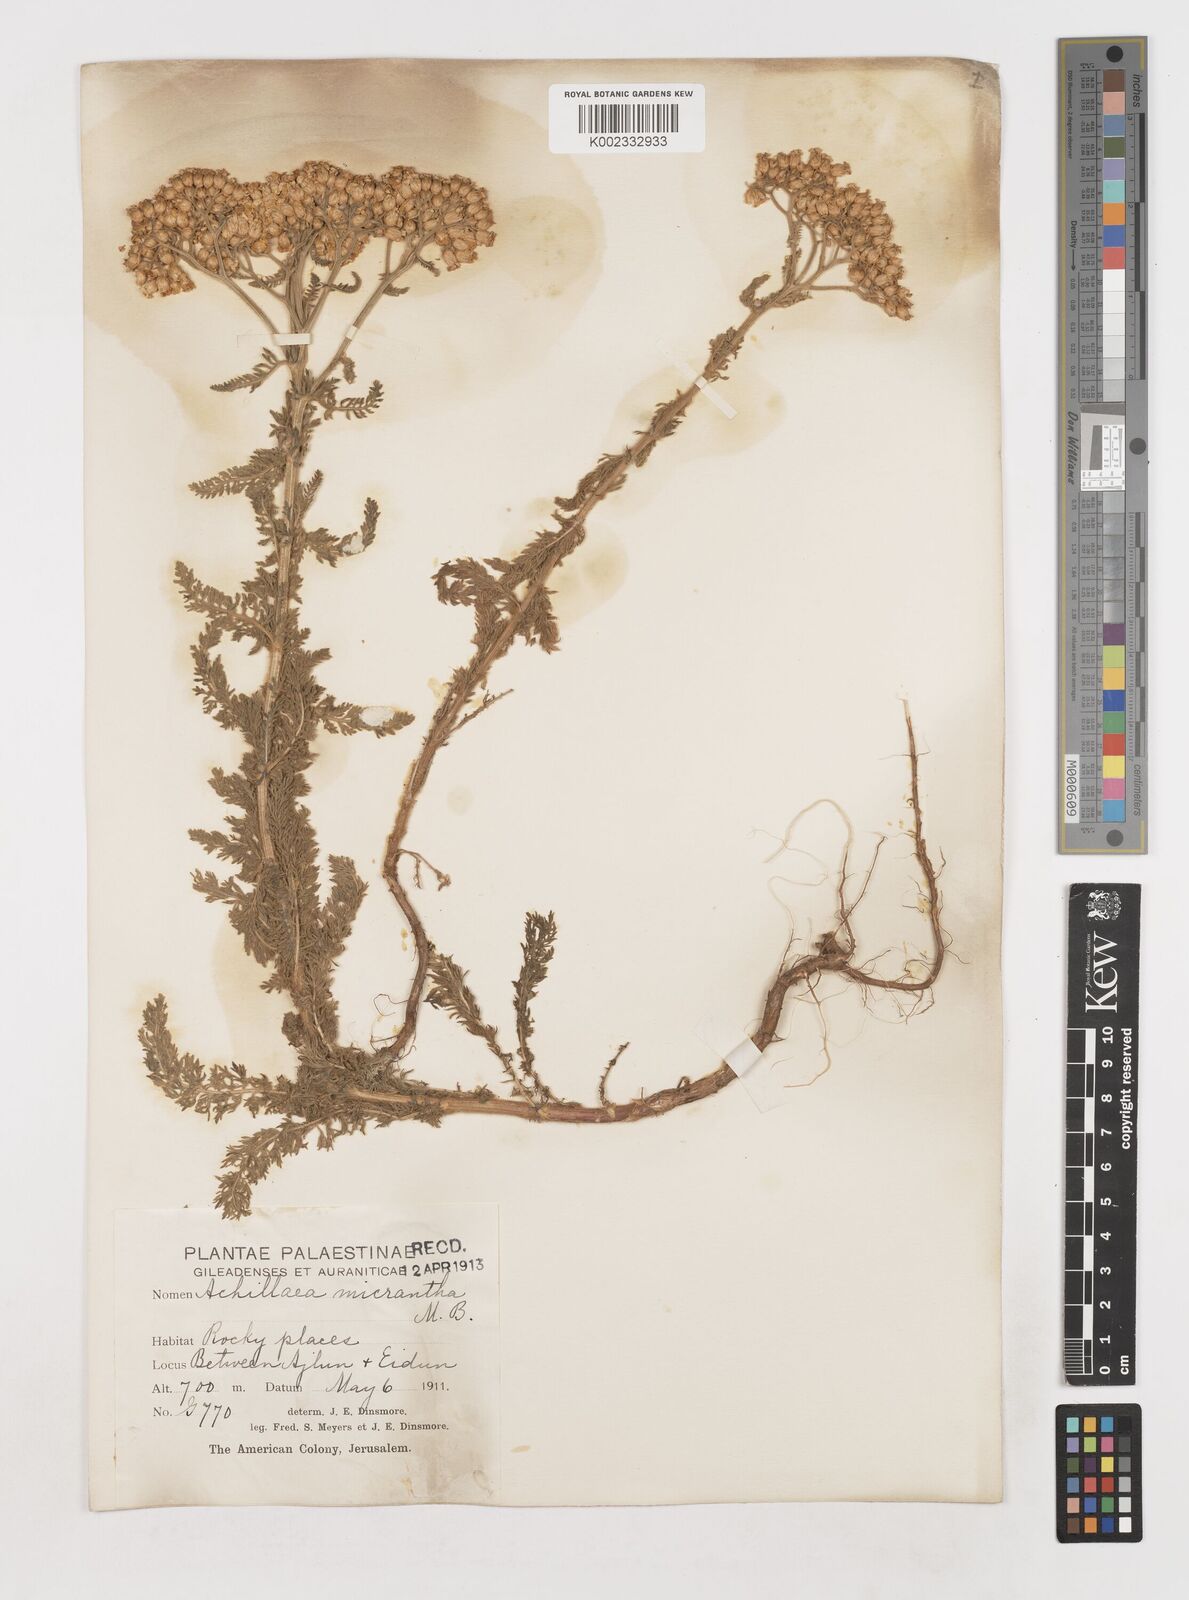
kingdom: Plantae
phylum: Tracheophyta
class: Magnoliopsida
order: Asterales
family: Asteraceae
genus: Achillea
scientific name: Achillea arabica
